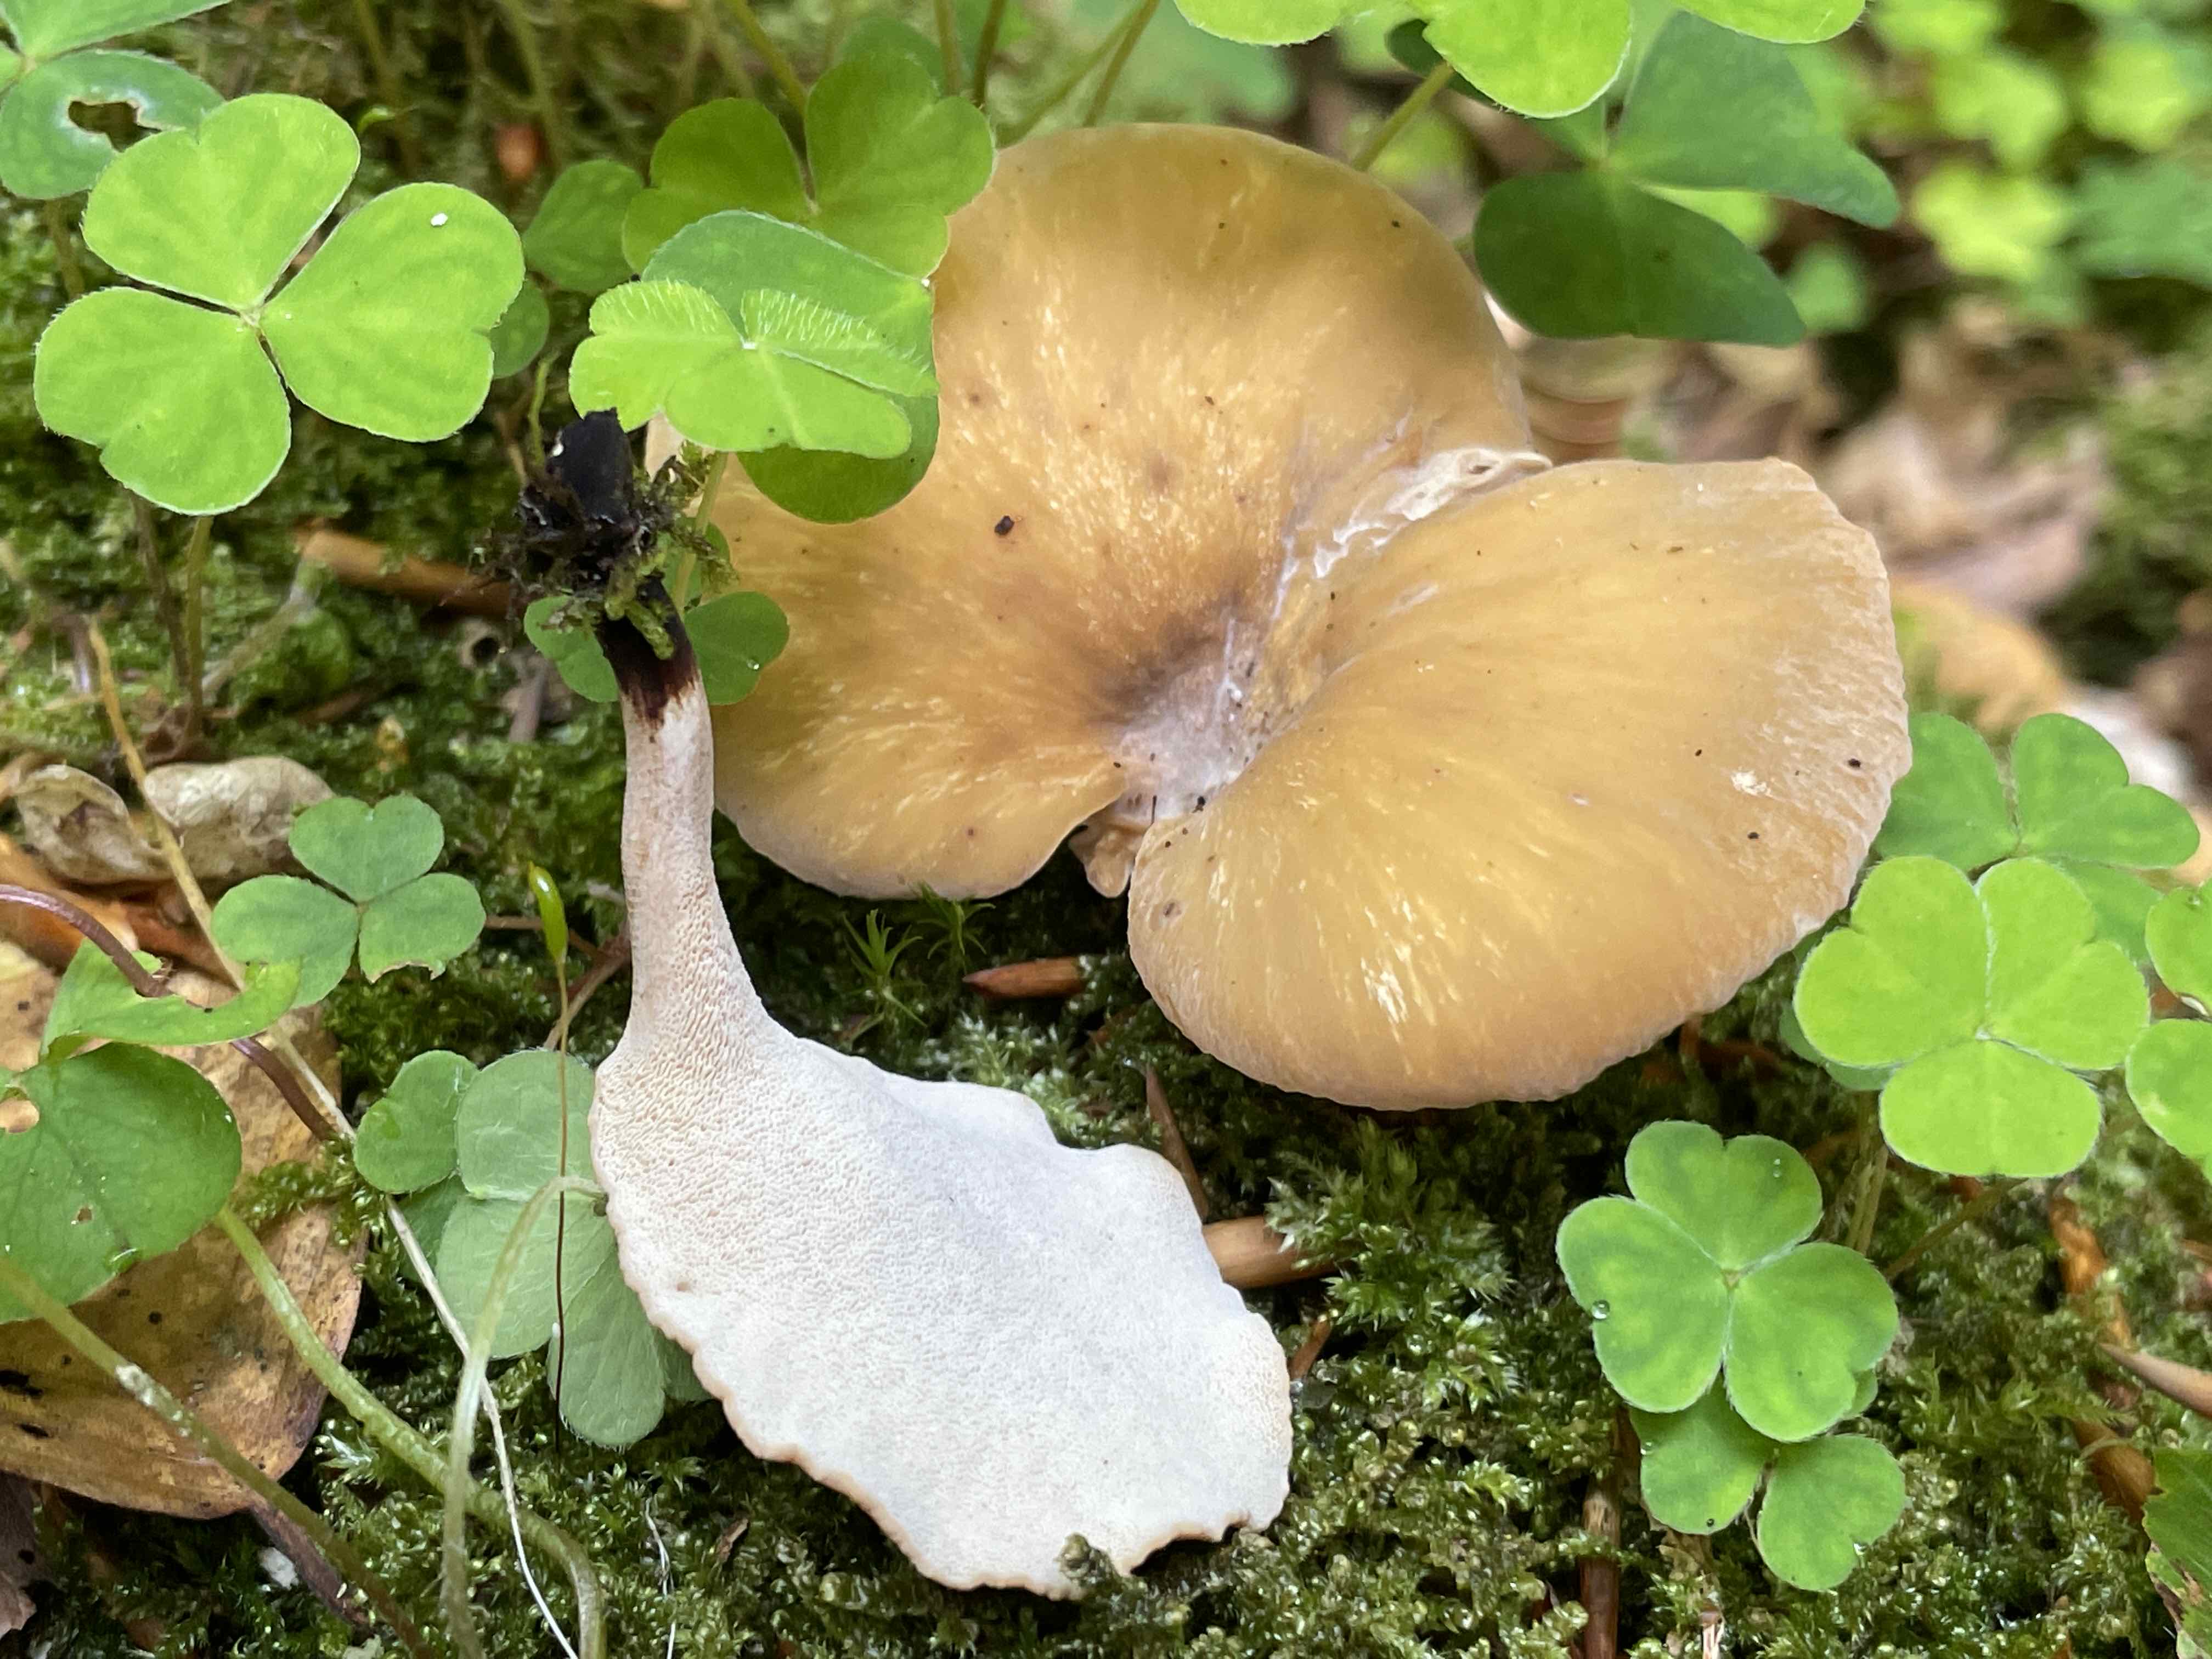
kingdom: Fungi
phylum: Basidiomycota
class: Agaricomycetes
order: Polyporales
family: Polyporaceae
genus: Cerioporus
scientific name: Cerioporus varius
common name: foranderlig stilkporesvamp
